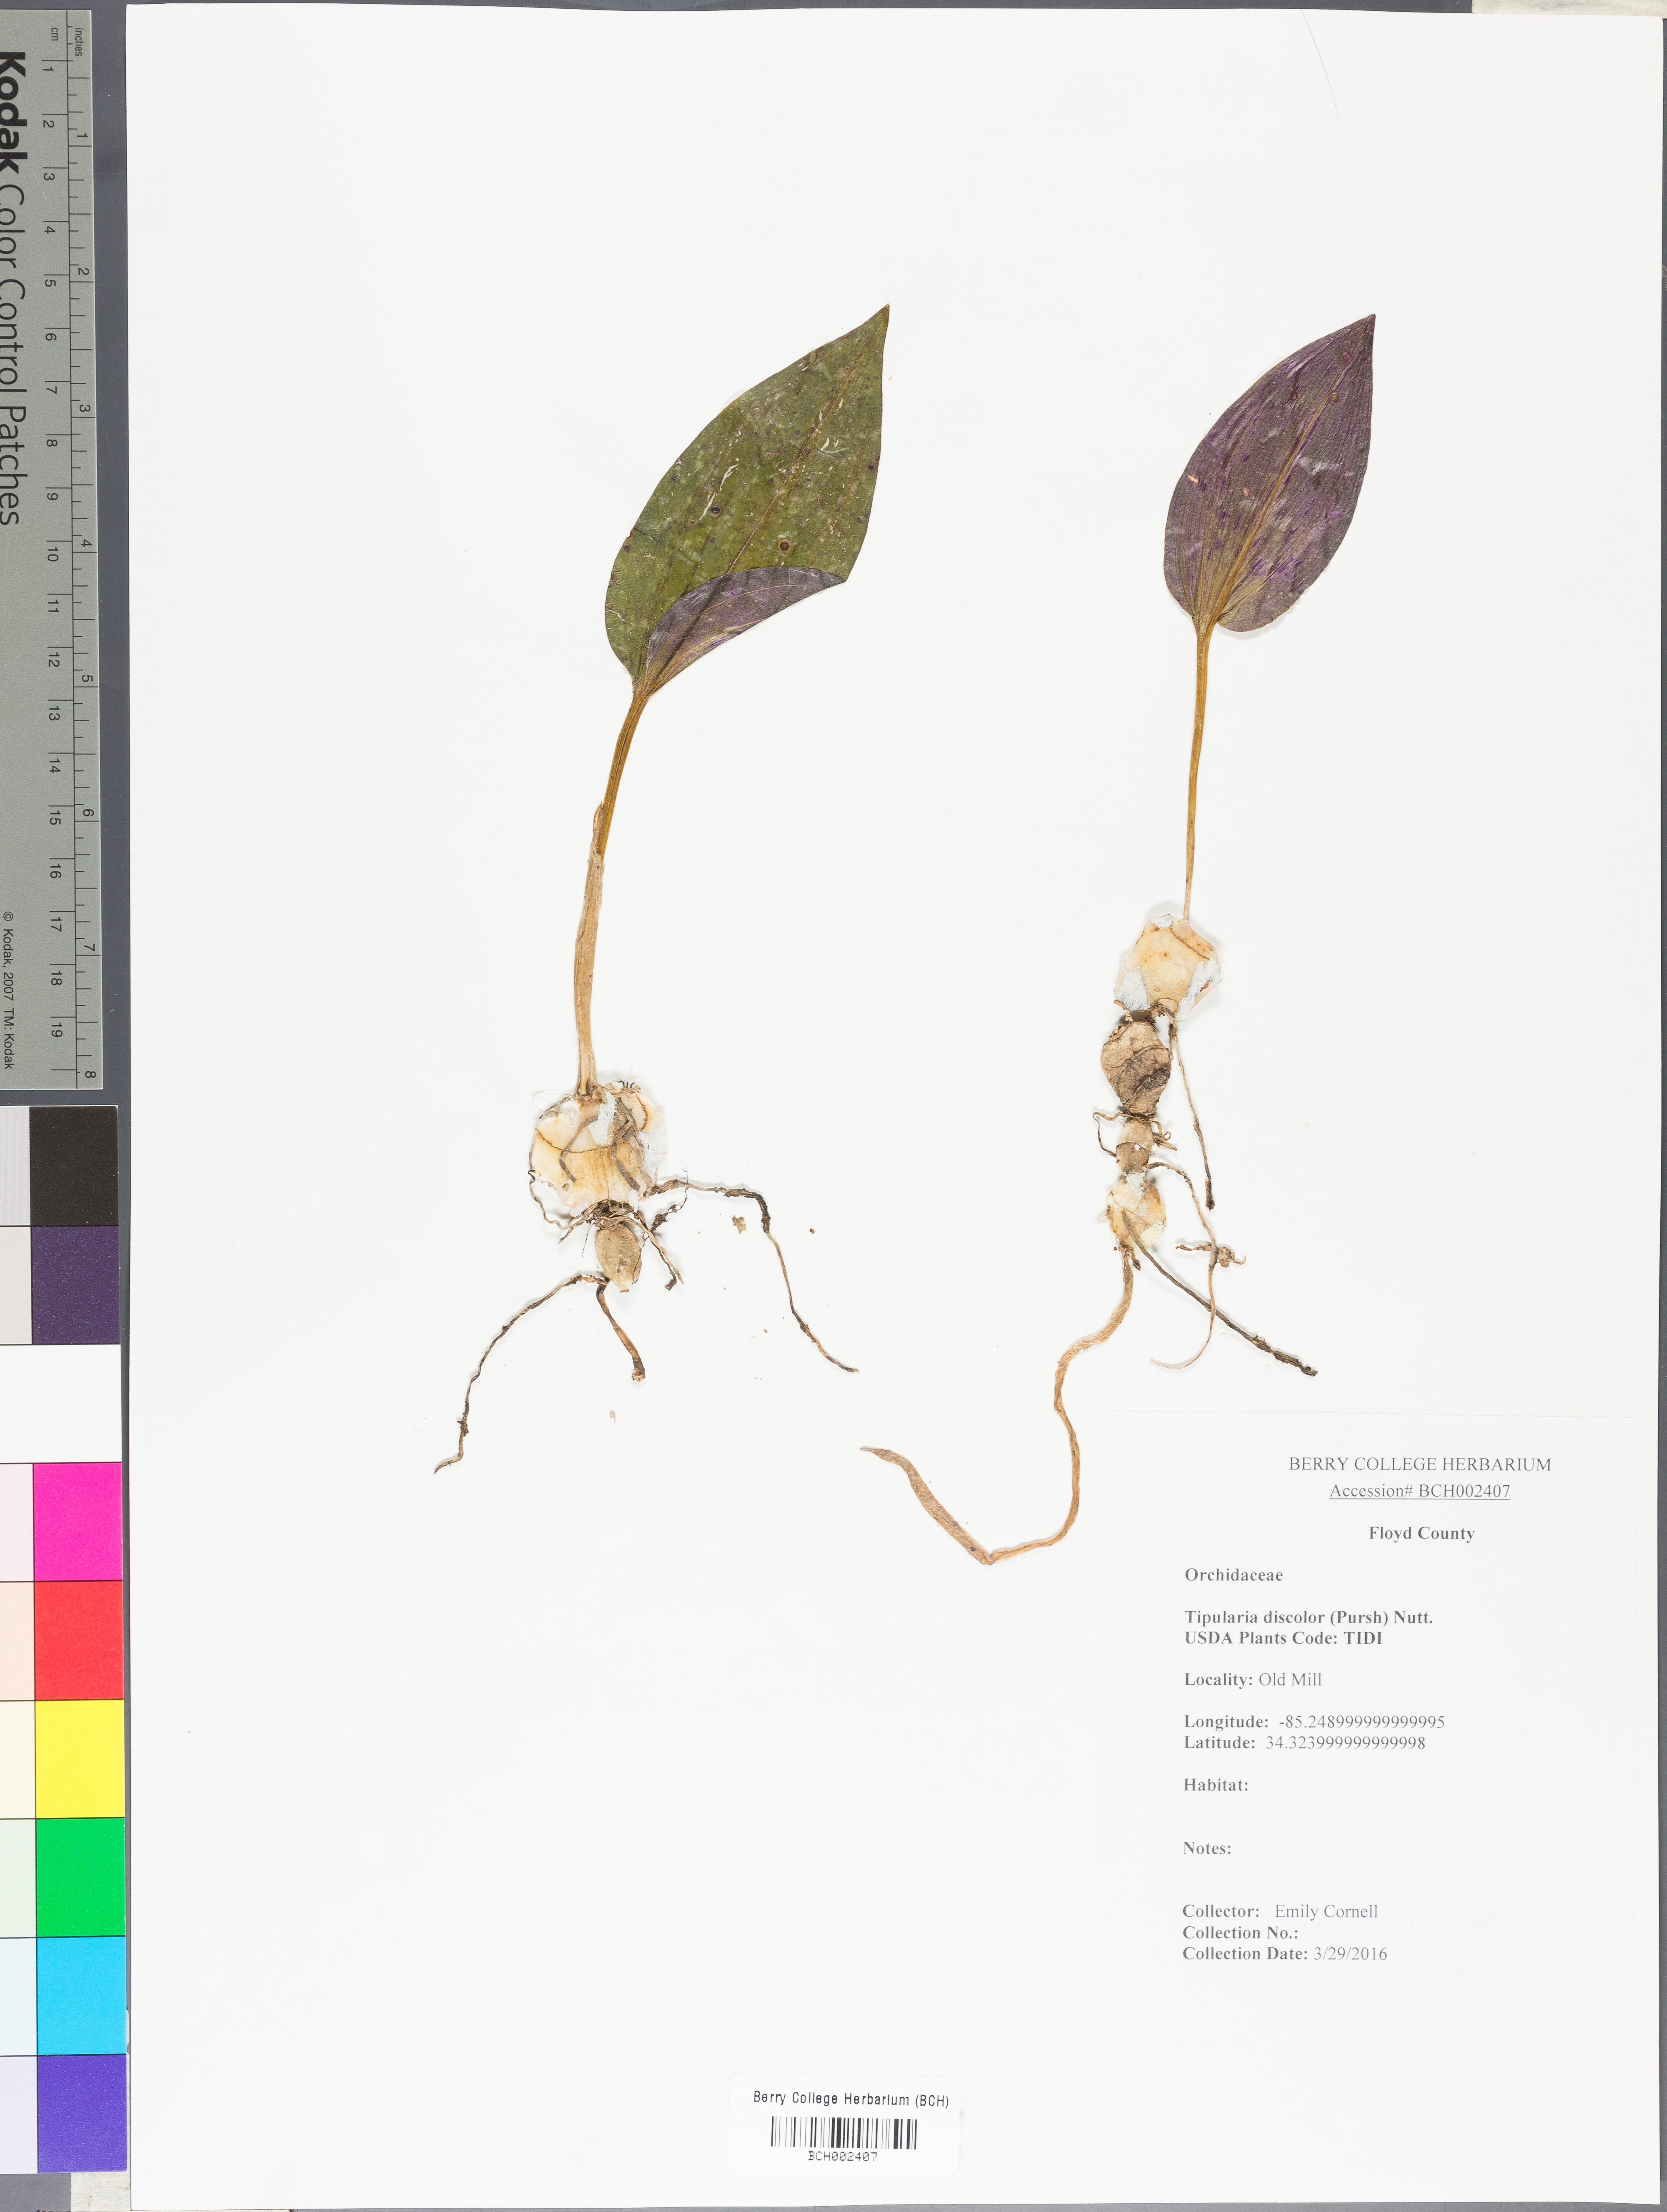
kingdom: Plantae
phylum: Tracheophyta
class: Liliopsida
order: Asparagales
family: Orchidaceae
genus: Tipularia
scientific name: Tipularia discolor
